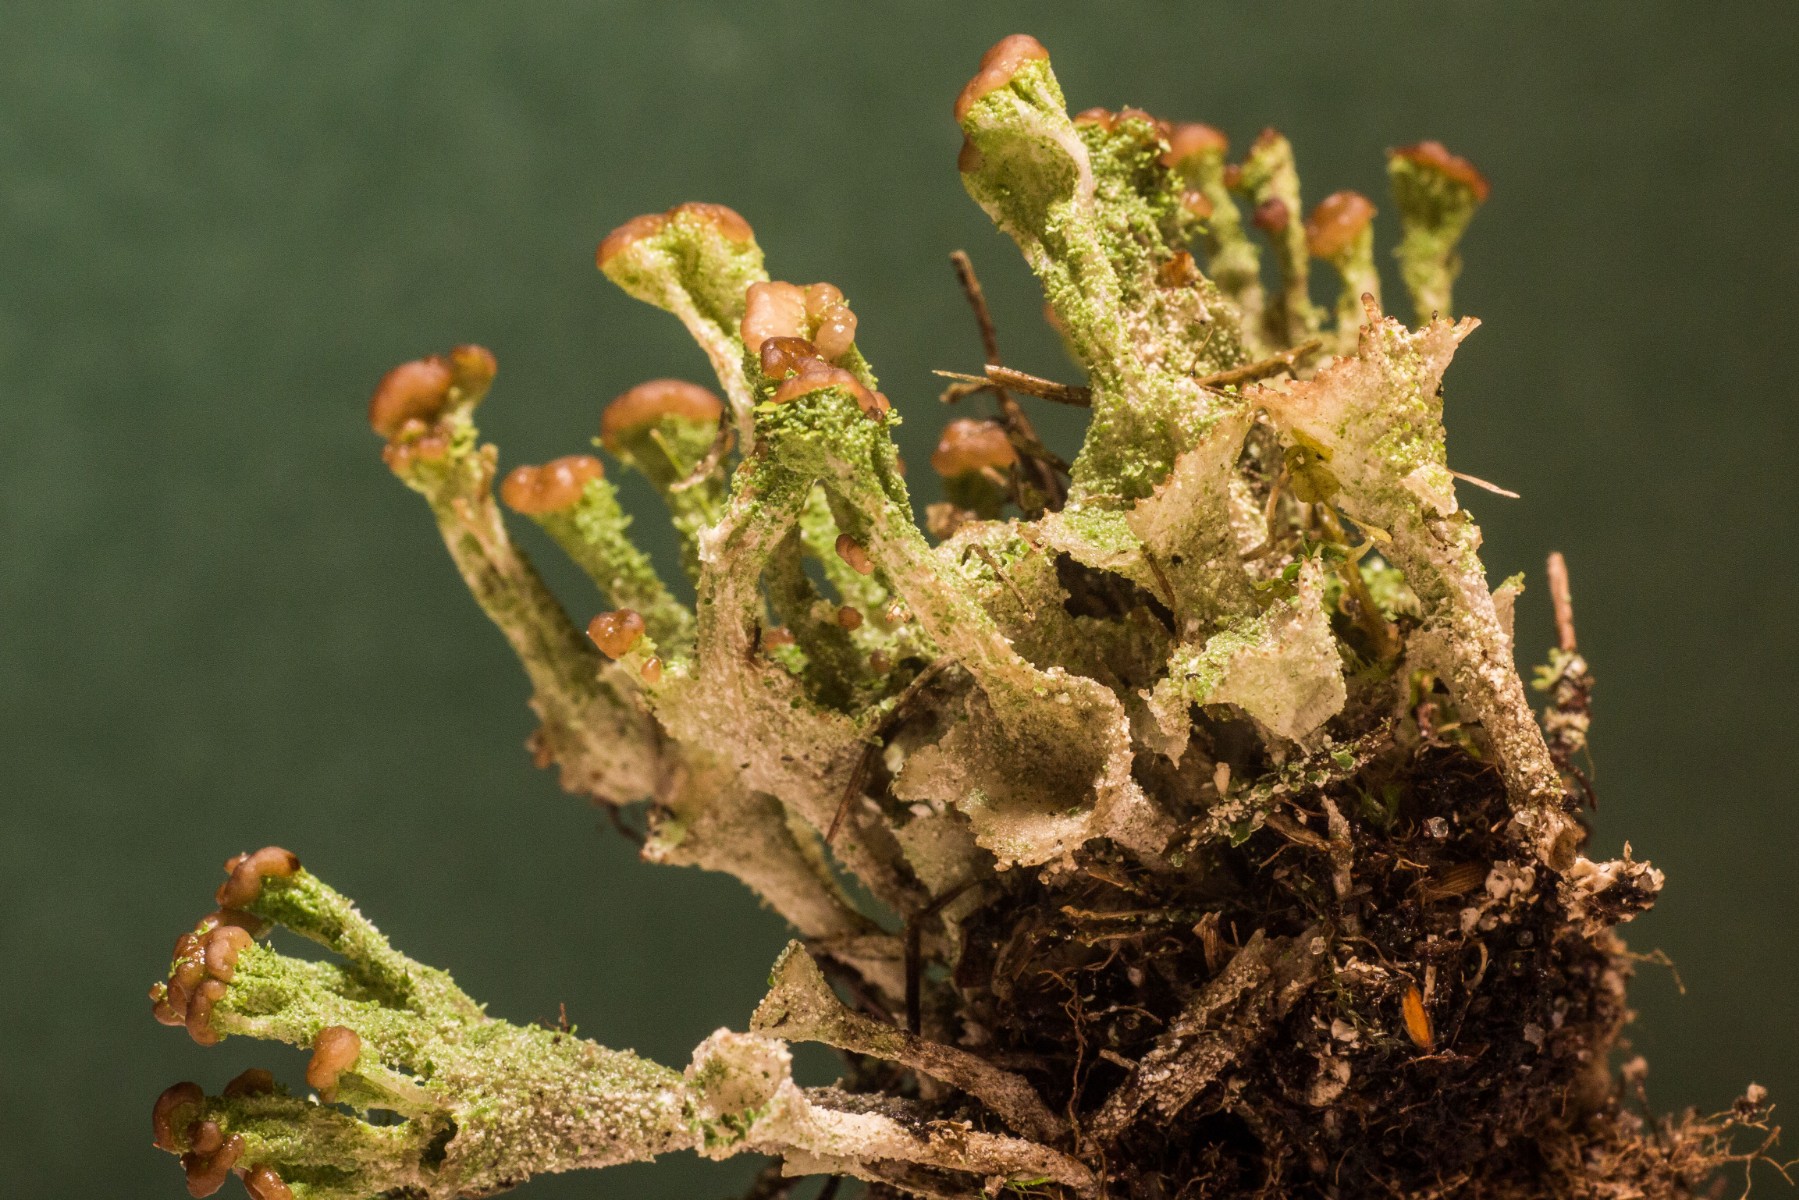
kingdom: Fungi
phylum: Ascomycota
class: Lecanoromycetes
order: Lecanorales
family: Cladoniaceae
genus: Cladonia
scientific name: Cladonia
